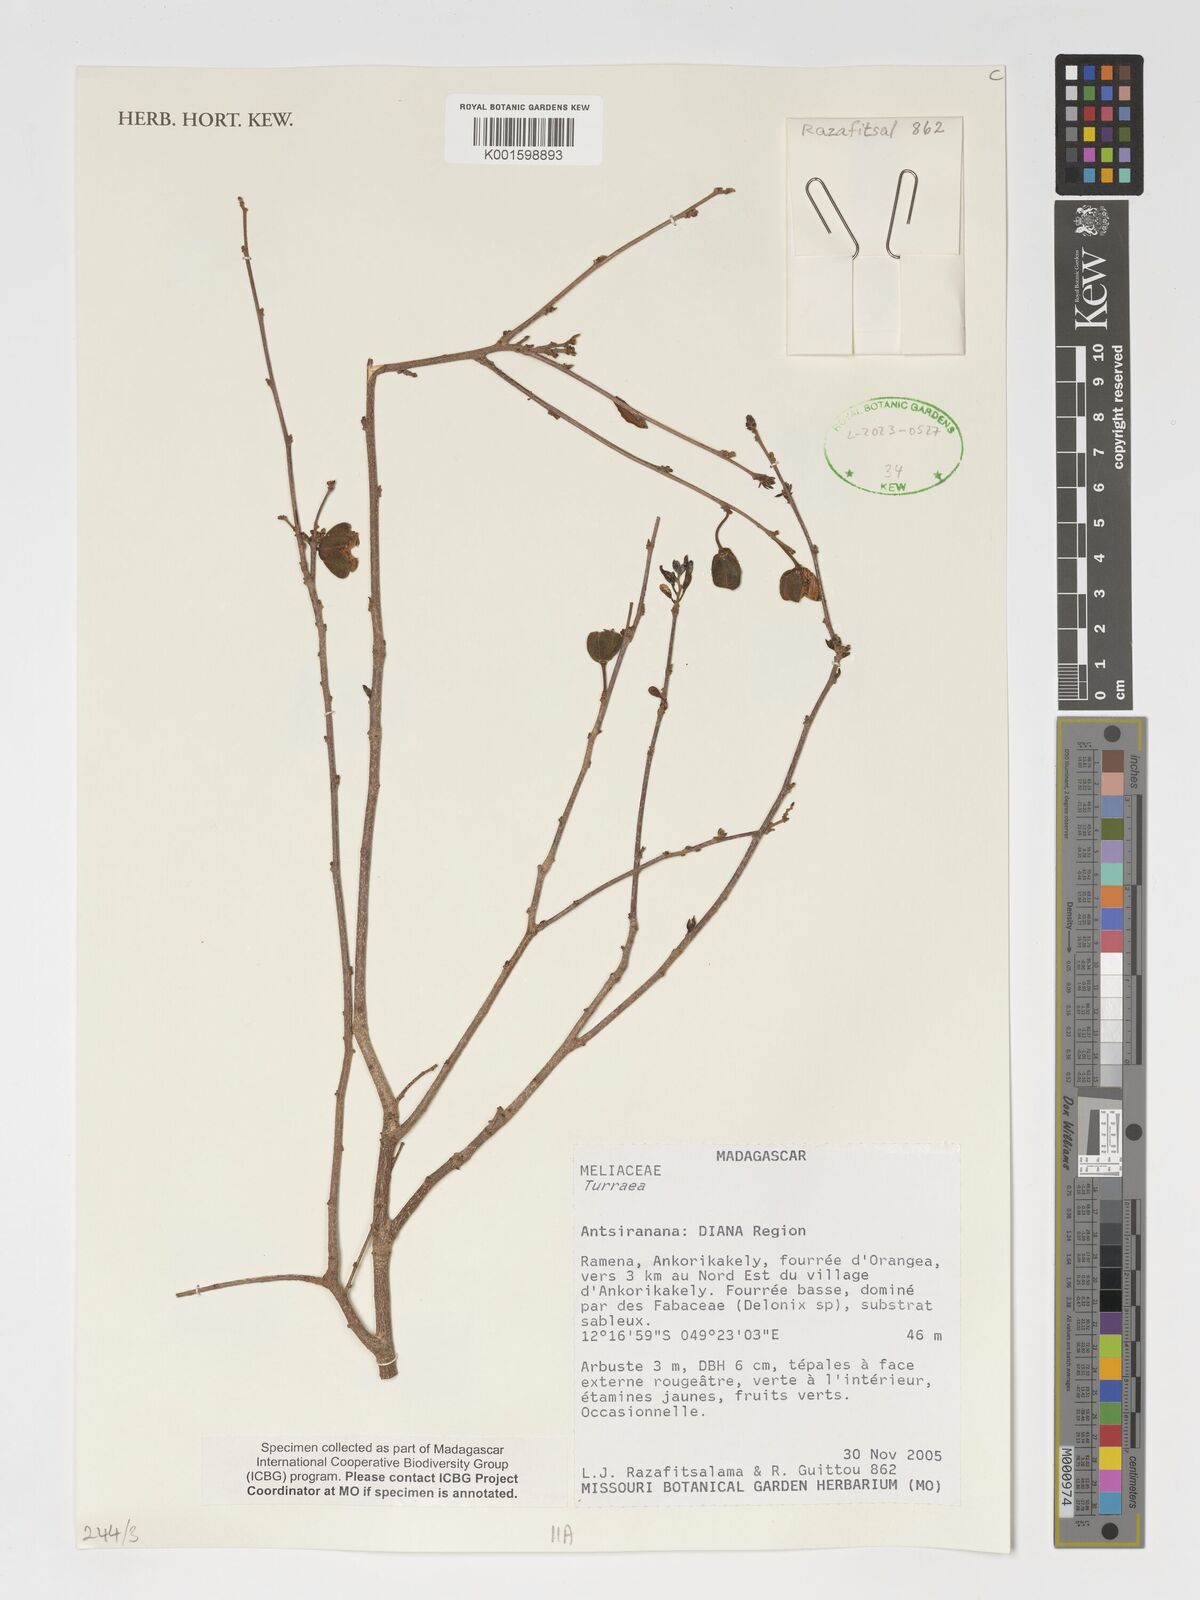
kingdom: Plantae
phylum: Tracheophyta
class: Magnoliopsida
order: Sapindales
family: Meliaceae
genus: Turraea
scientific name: Turraea
